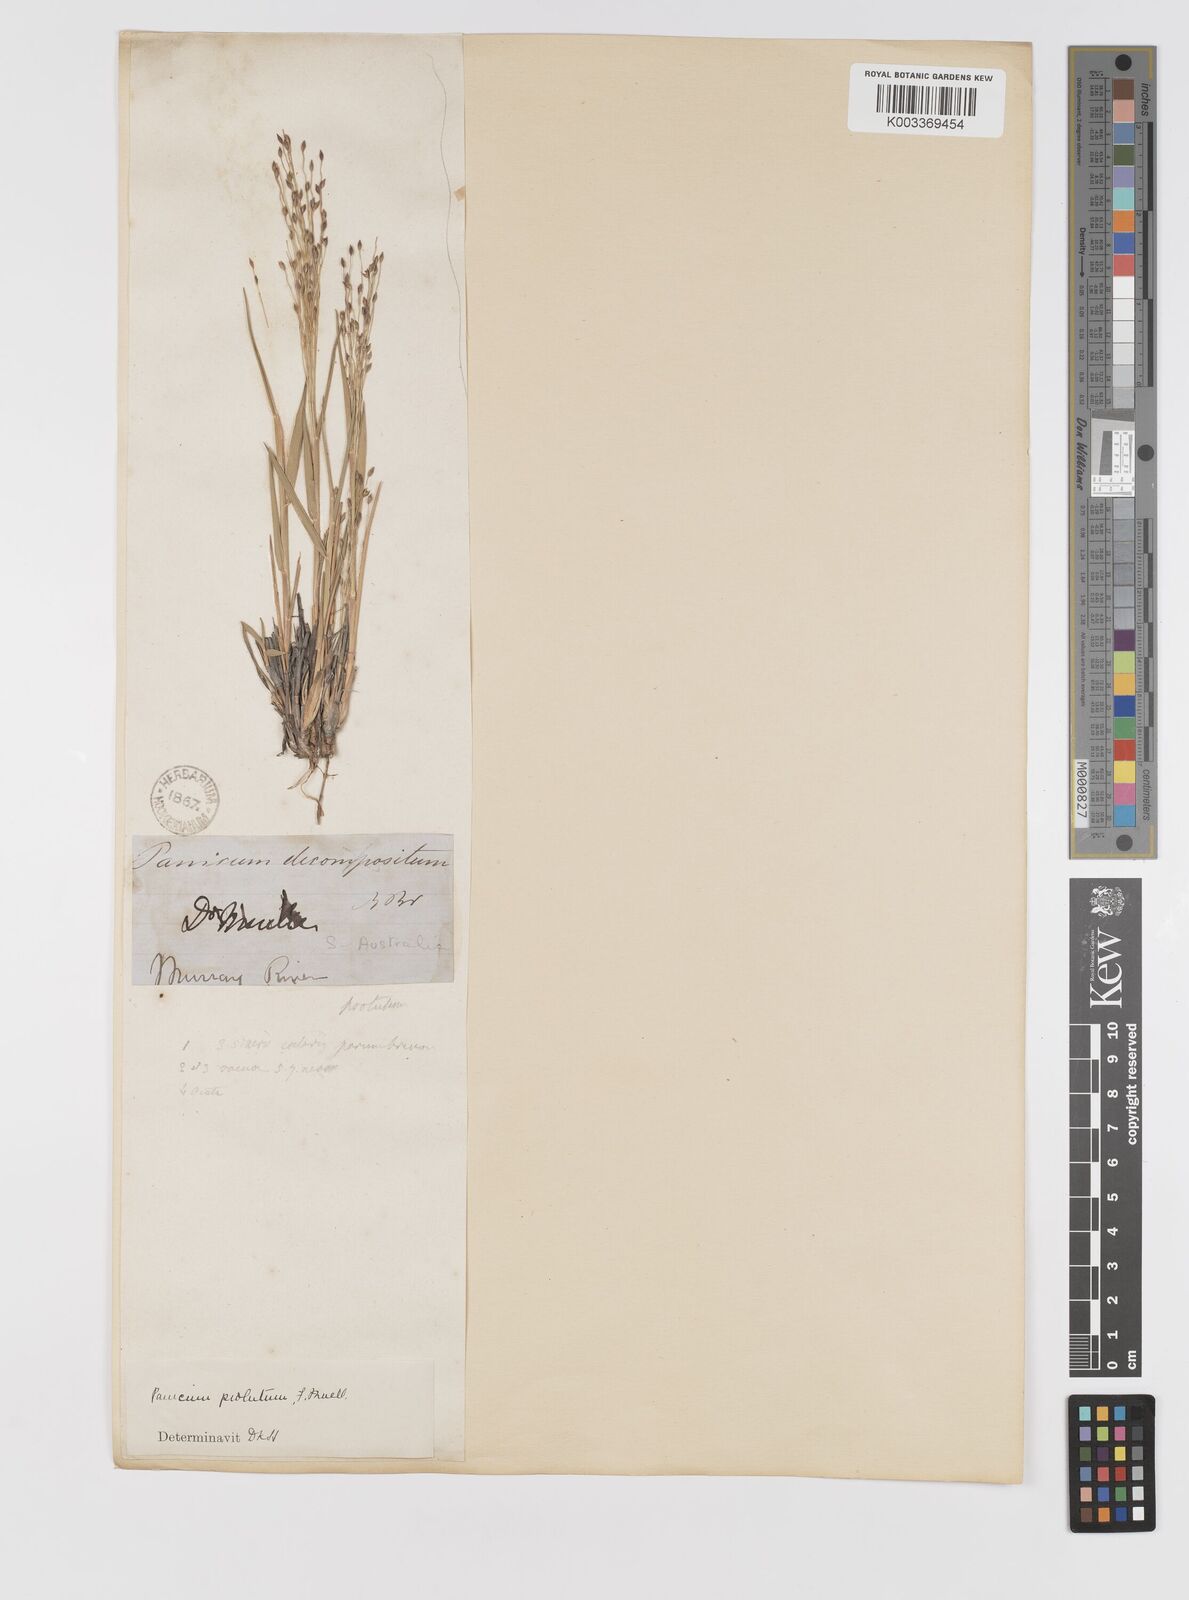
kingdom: Plantae
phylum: Tracheophyta
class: Liliopsida
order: Poales
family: Poaceae
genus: Walwhalleya
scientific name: Walwhalleya proluta
